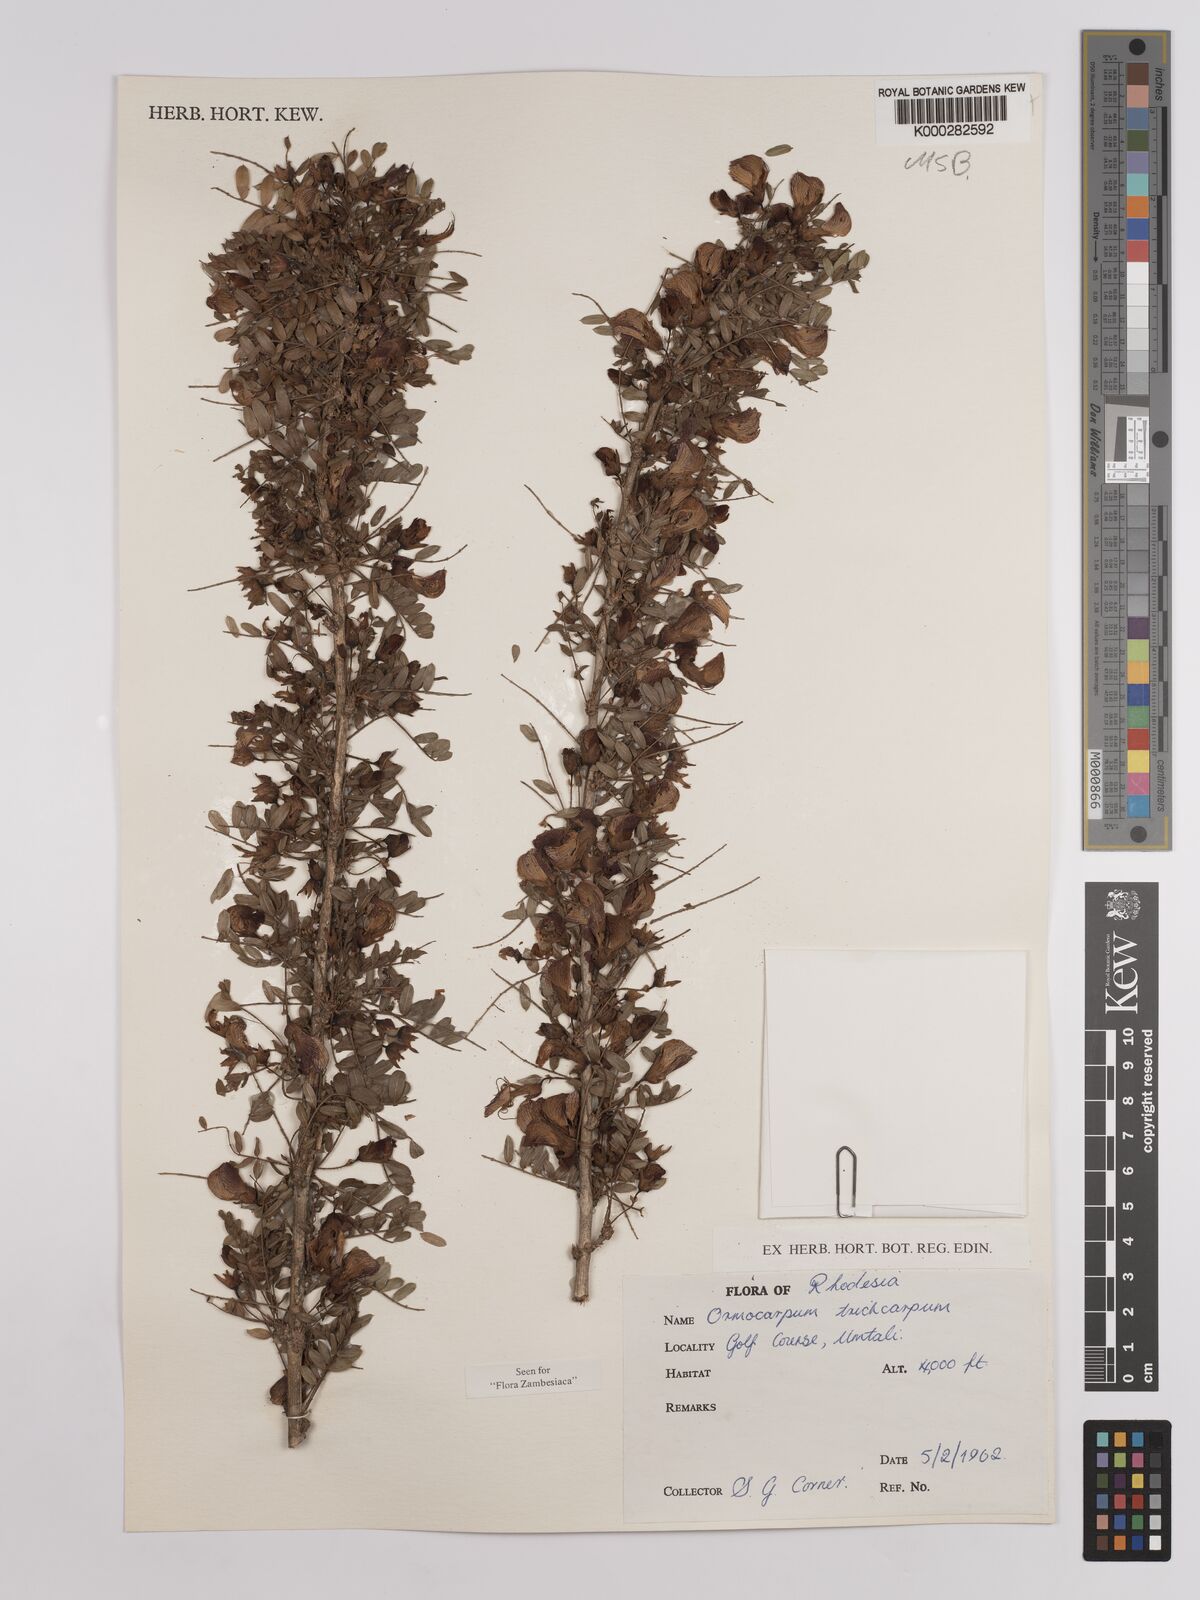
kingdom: Plantae
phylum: Tracheophyta
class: Magnoliopsida
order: Fabales
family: Fabaceae
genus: Ormocarpum
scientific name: Ormocarpum trichocarpum
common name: Caterpillar bush
